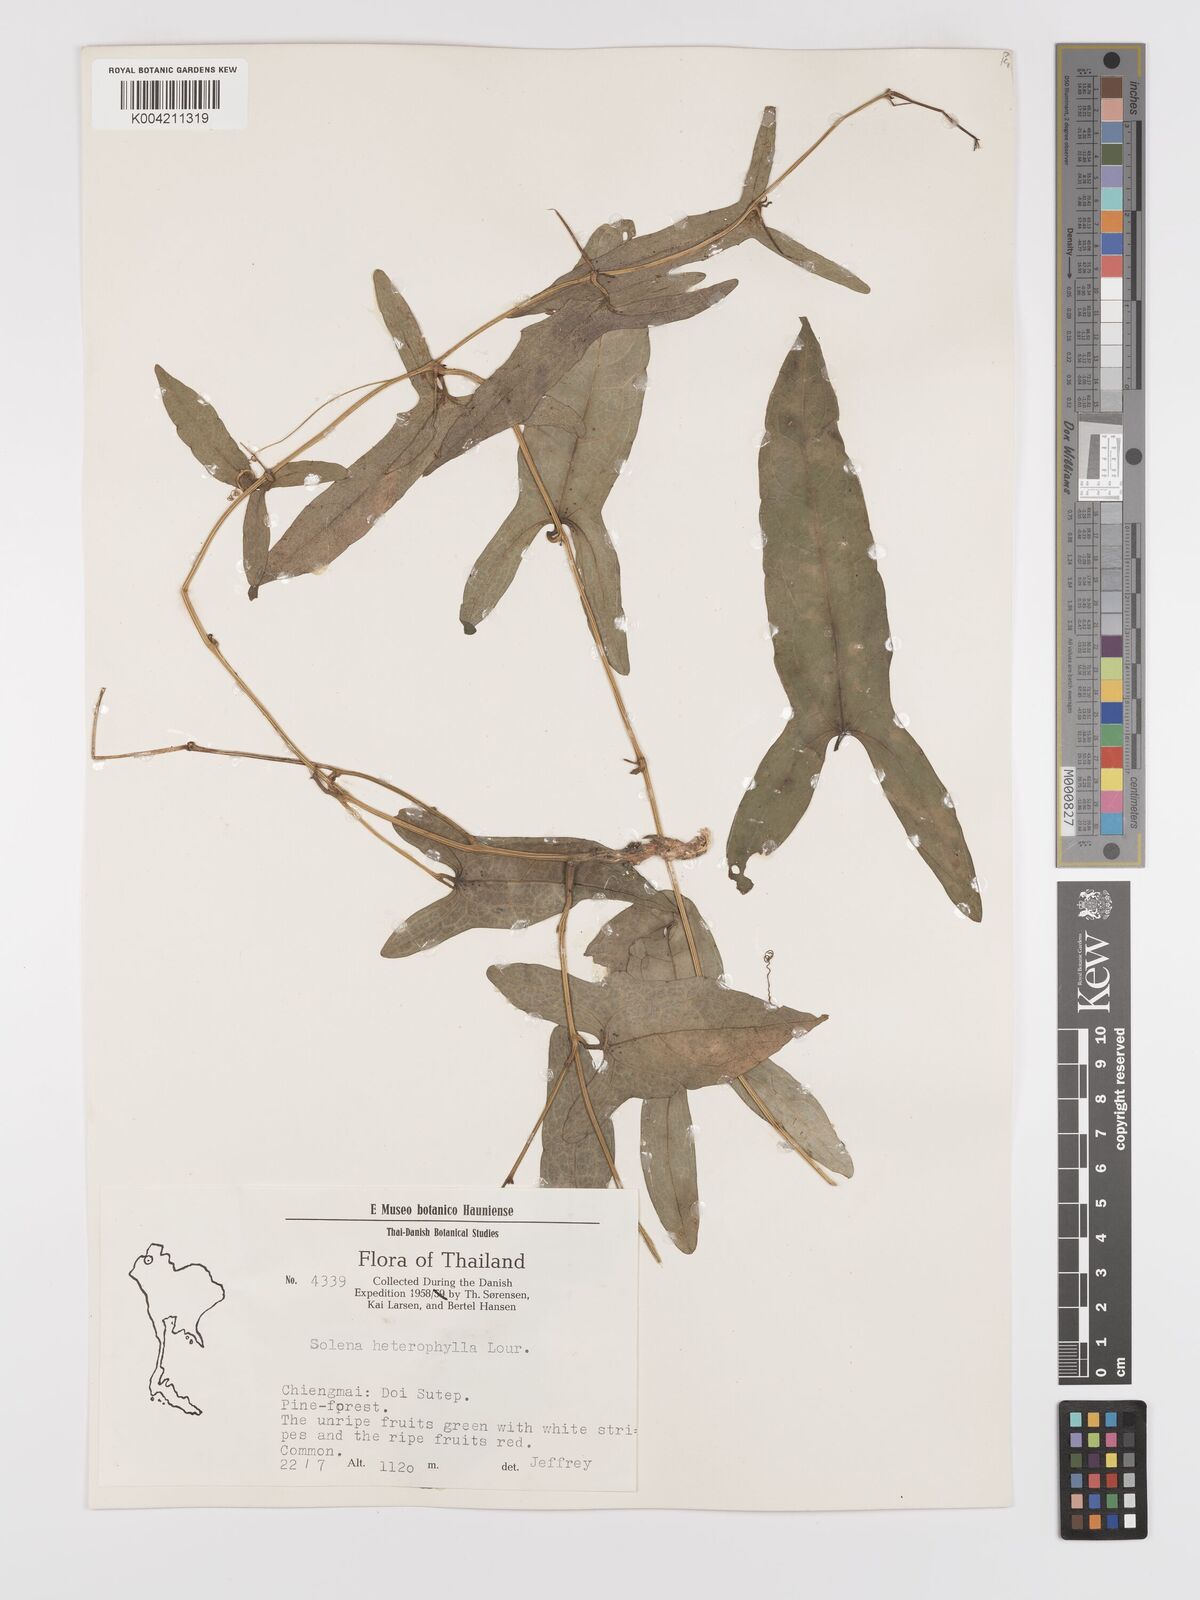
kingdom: Plantae
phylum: Tracheophyta
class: Magnoliopsida
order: Cucurbitales
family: Cucurbitaceae
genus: Solena
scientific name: Solena amplexicaulis
